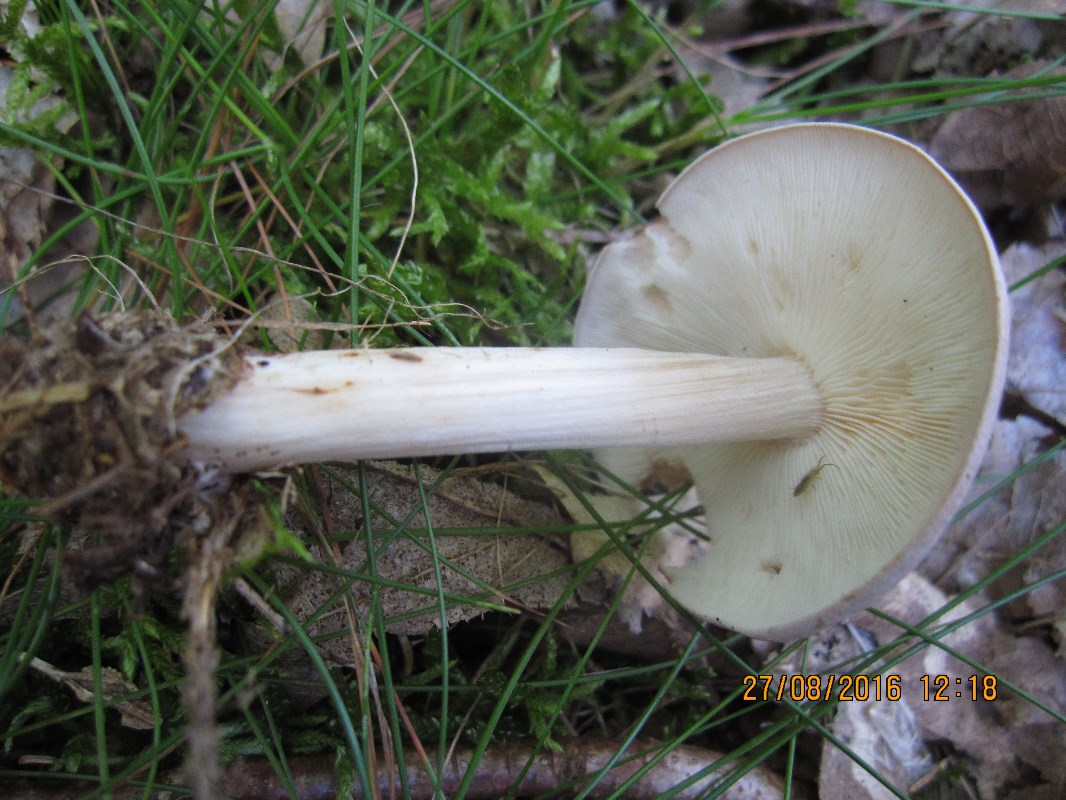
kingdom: Fungi
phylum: Basidiomycota
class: Agaricomycetes
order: Agaricales
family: Omphalotaceae
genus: Rhodocollybia
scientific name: Rhodocollybia prolixa
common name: snoet fladhat
